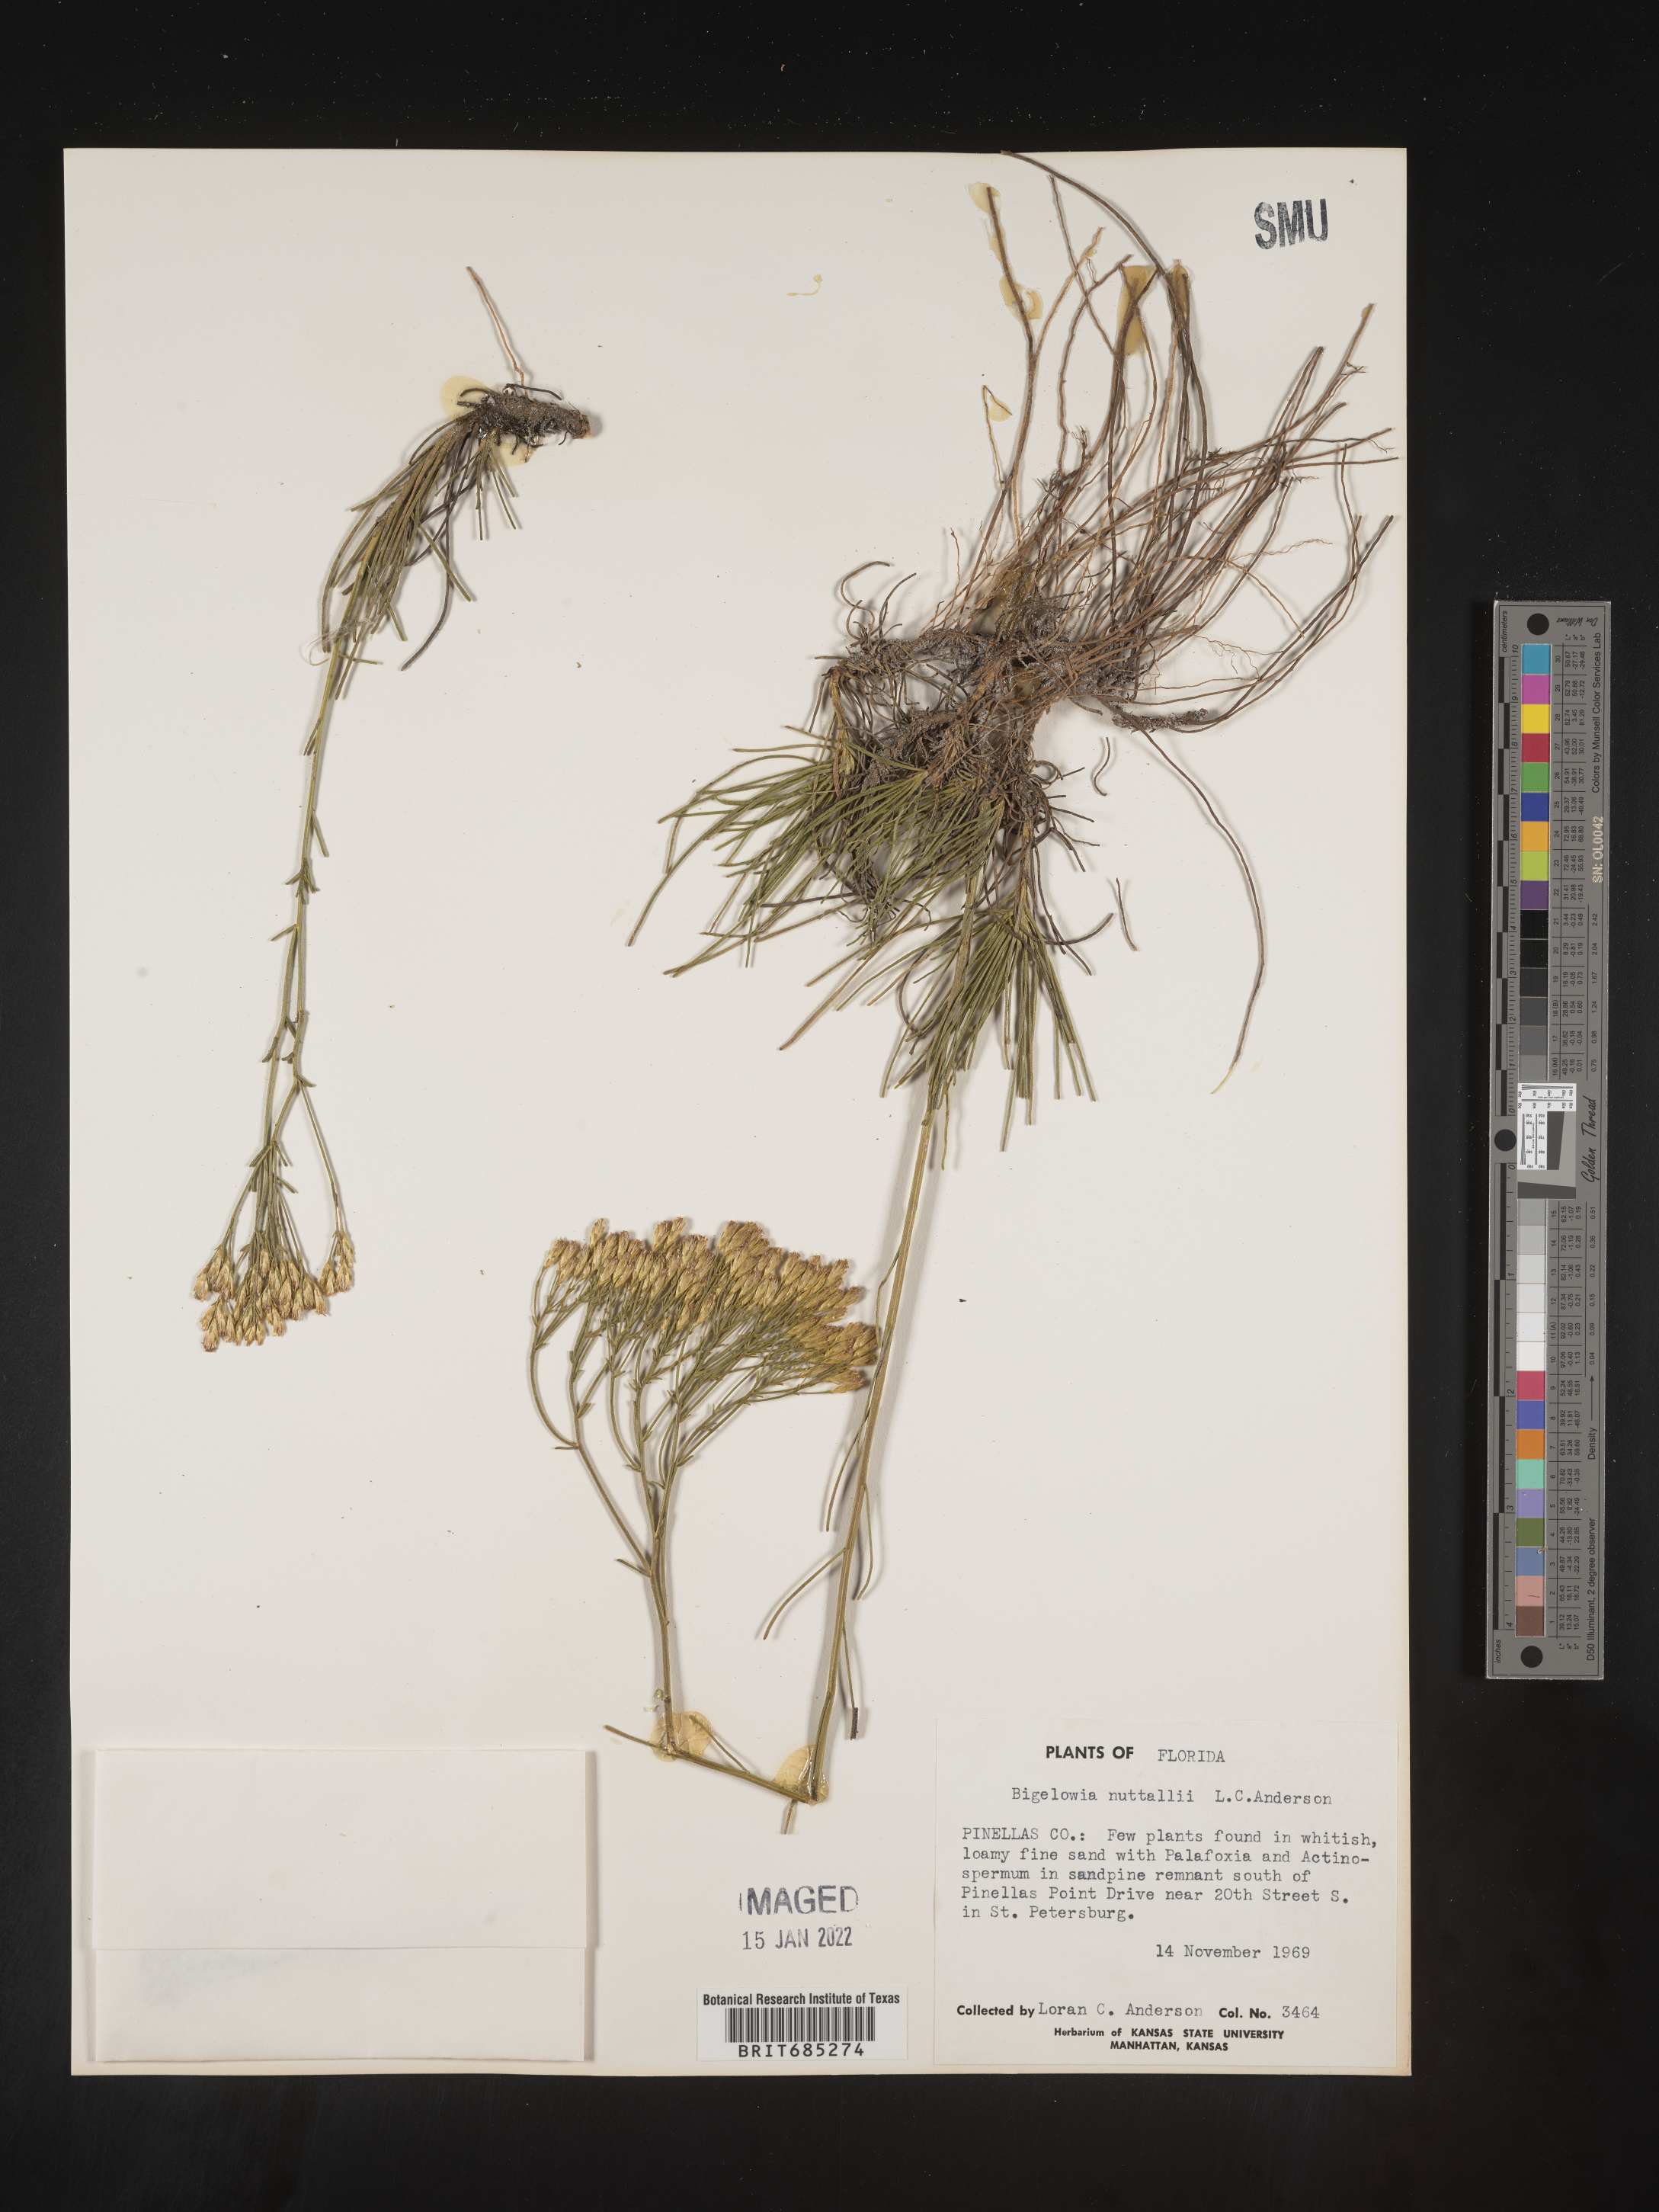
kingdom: Plantae
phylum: Tracheophyta
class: Magnoliopsida
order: Asterales
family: Asteraceae
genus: Bigelowia
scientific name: Bigelowia nudata
